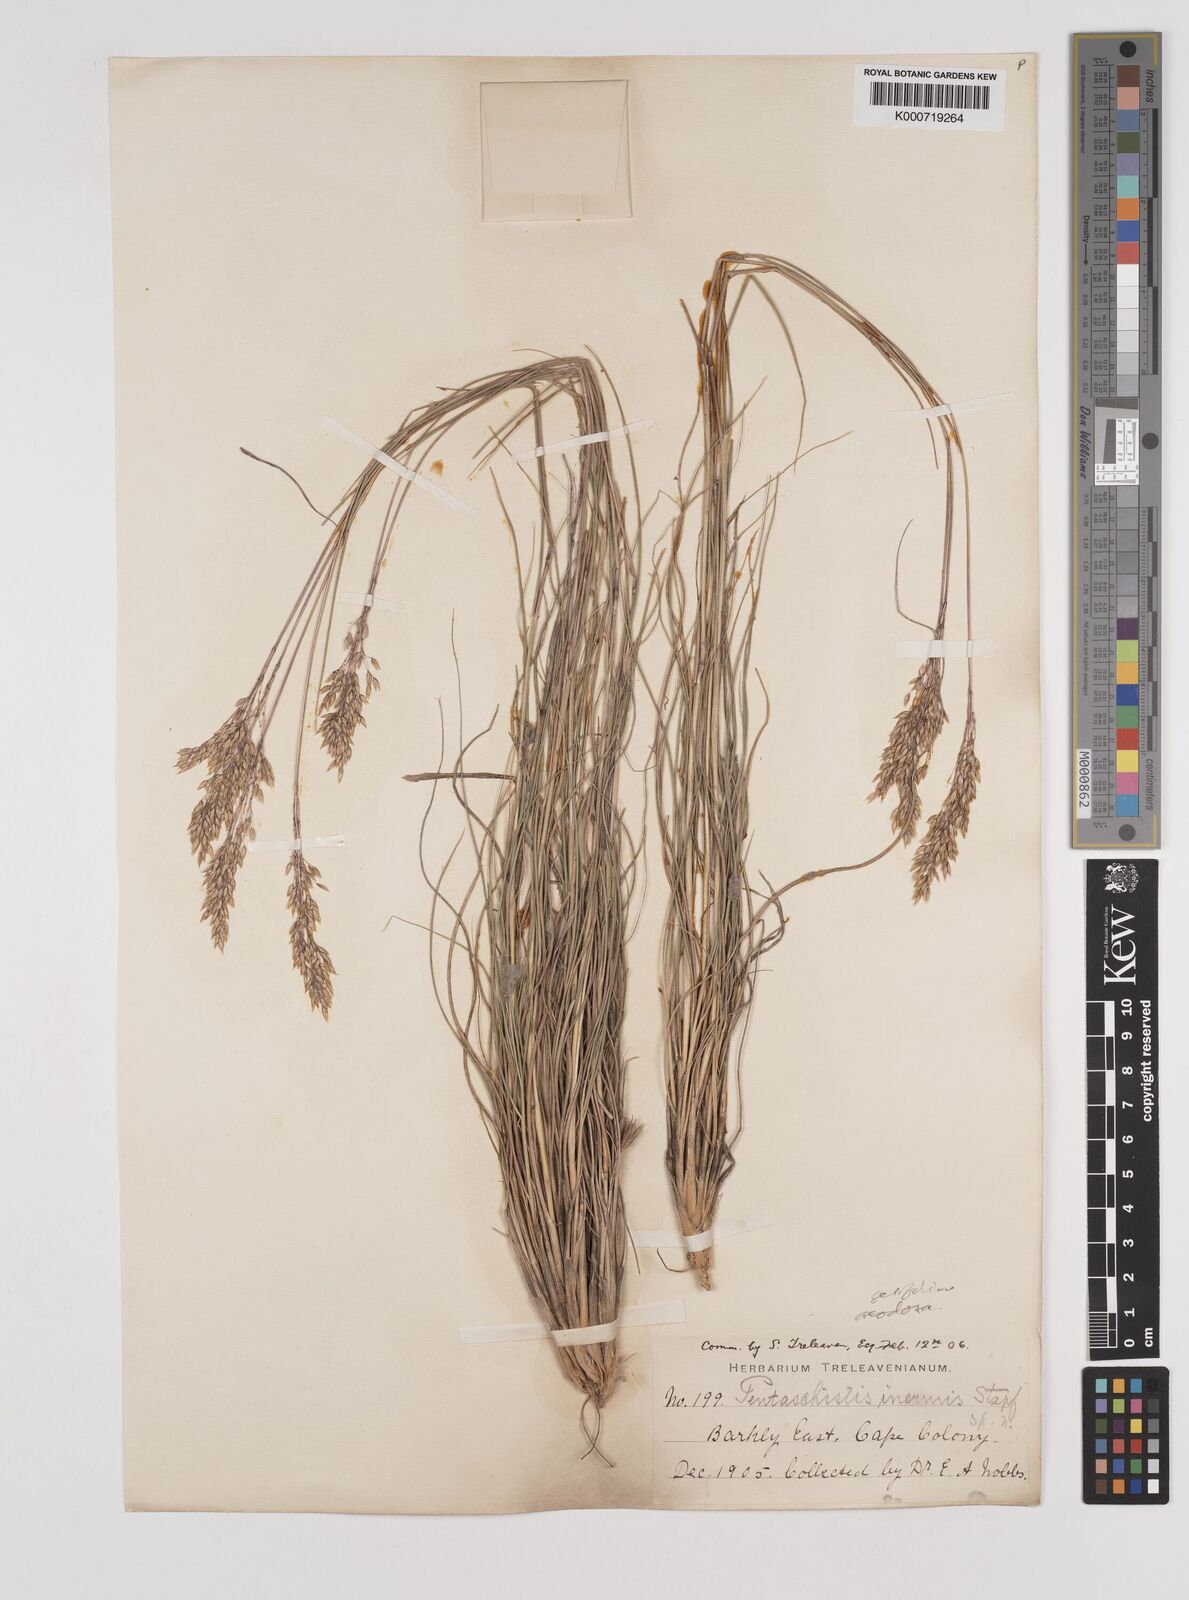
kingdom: Plantae
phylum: Tracheophyta
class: Liliopsida
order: Poales
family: Poaceae
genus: Pentameris
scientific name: Pentameris setifolia
